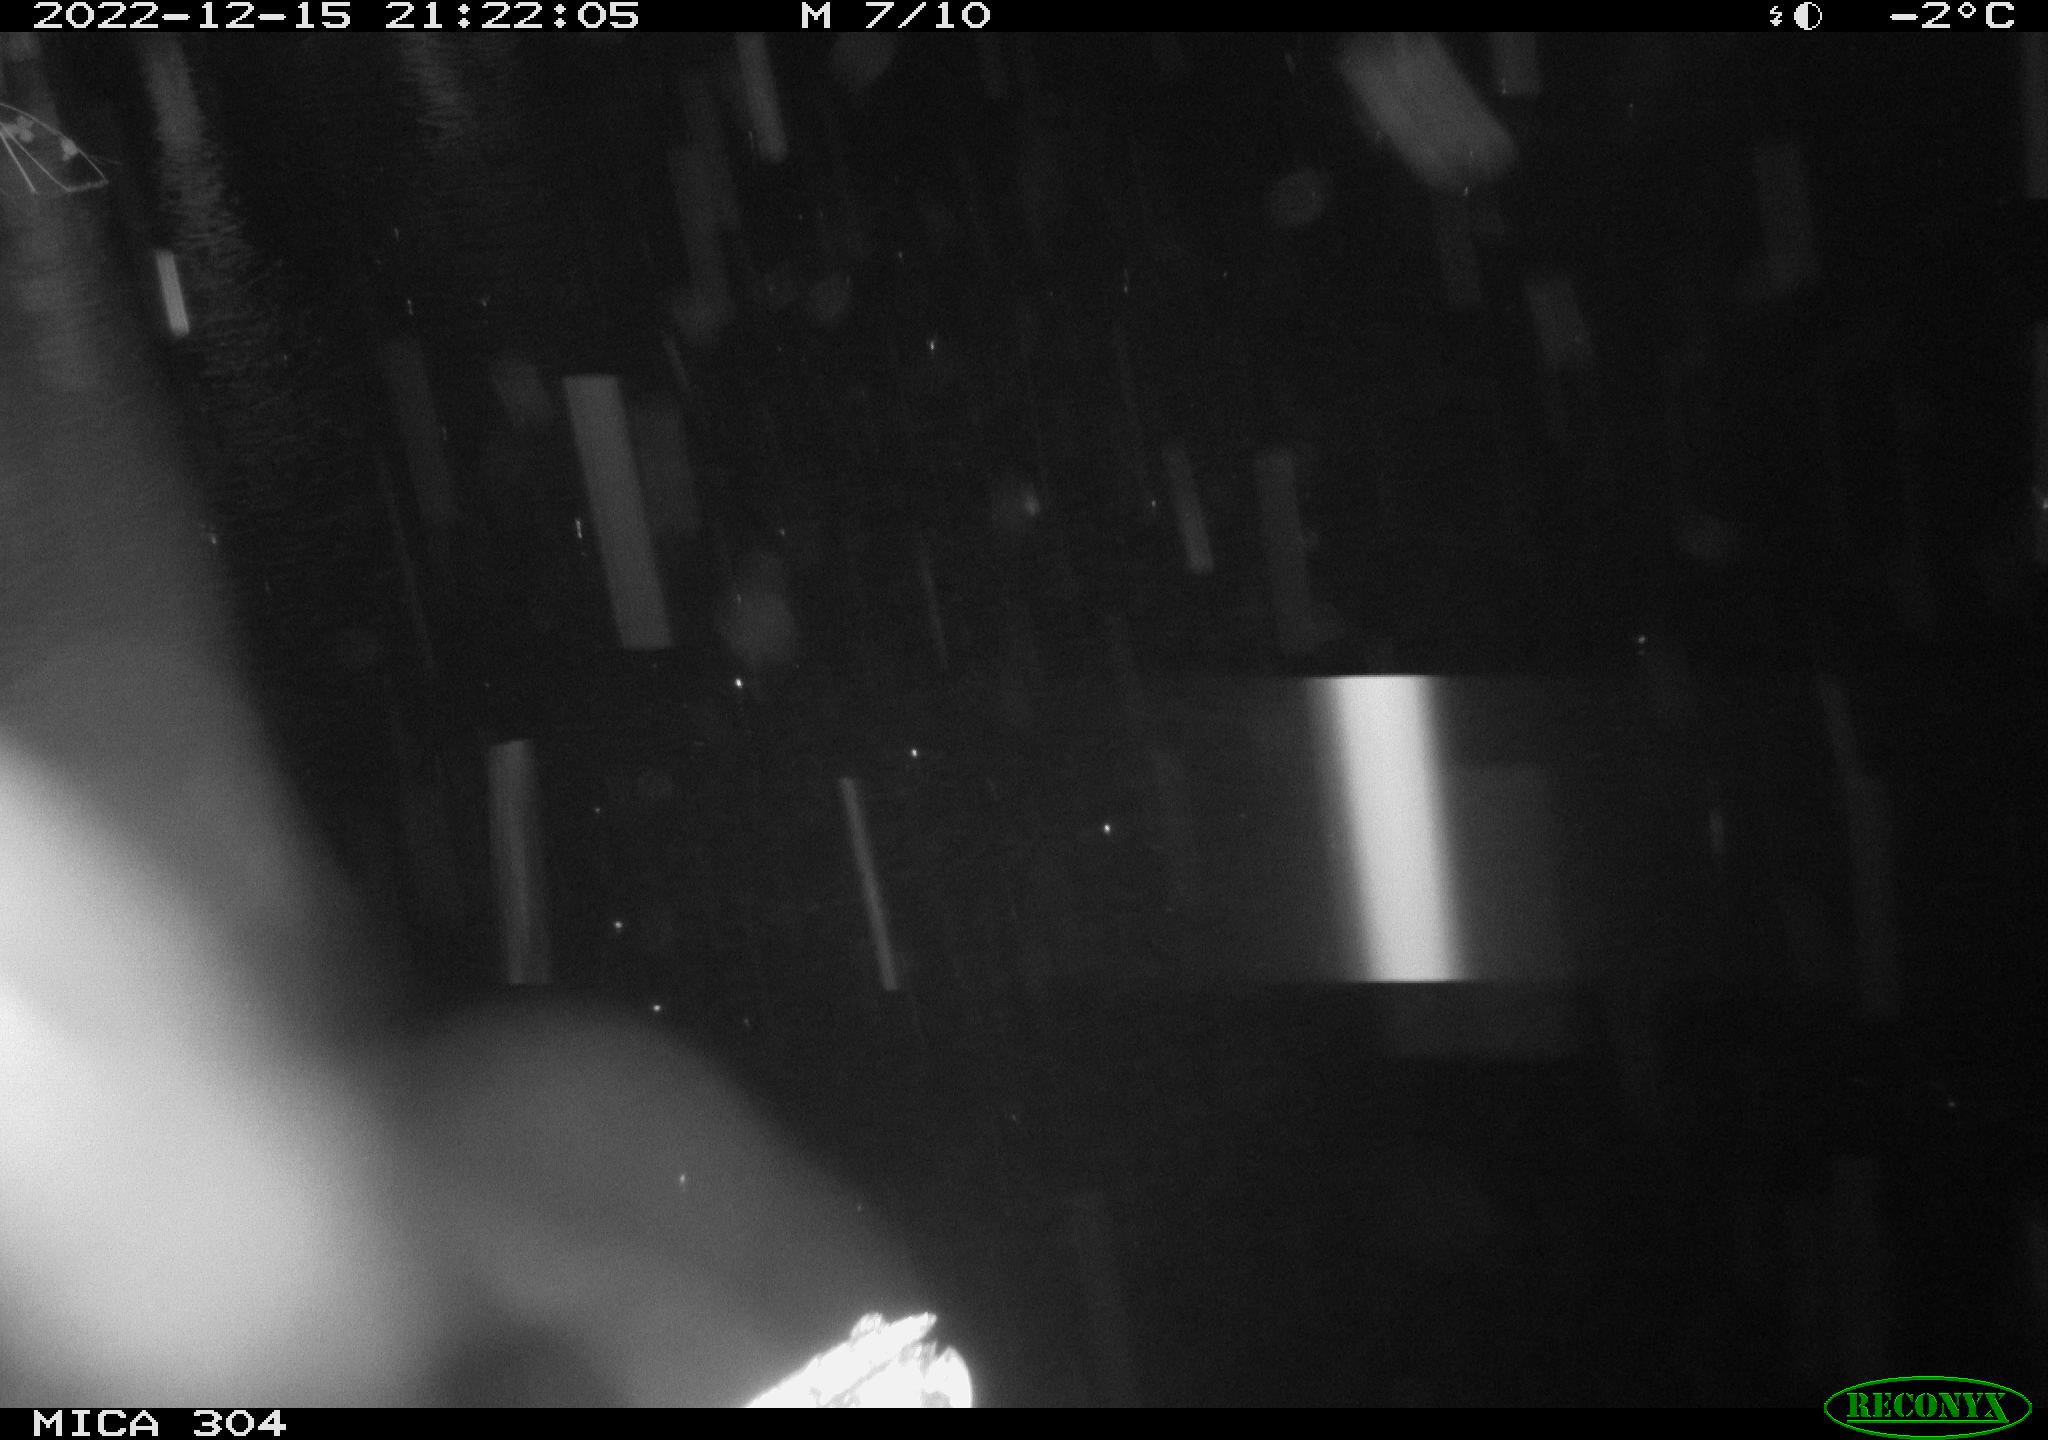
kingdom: Animalia
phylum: Chordata
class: Aves
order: Anseriformes
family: Anatidae
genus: Anas
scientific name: Anas
